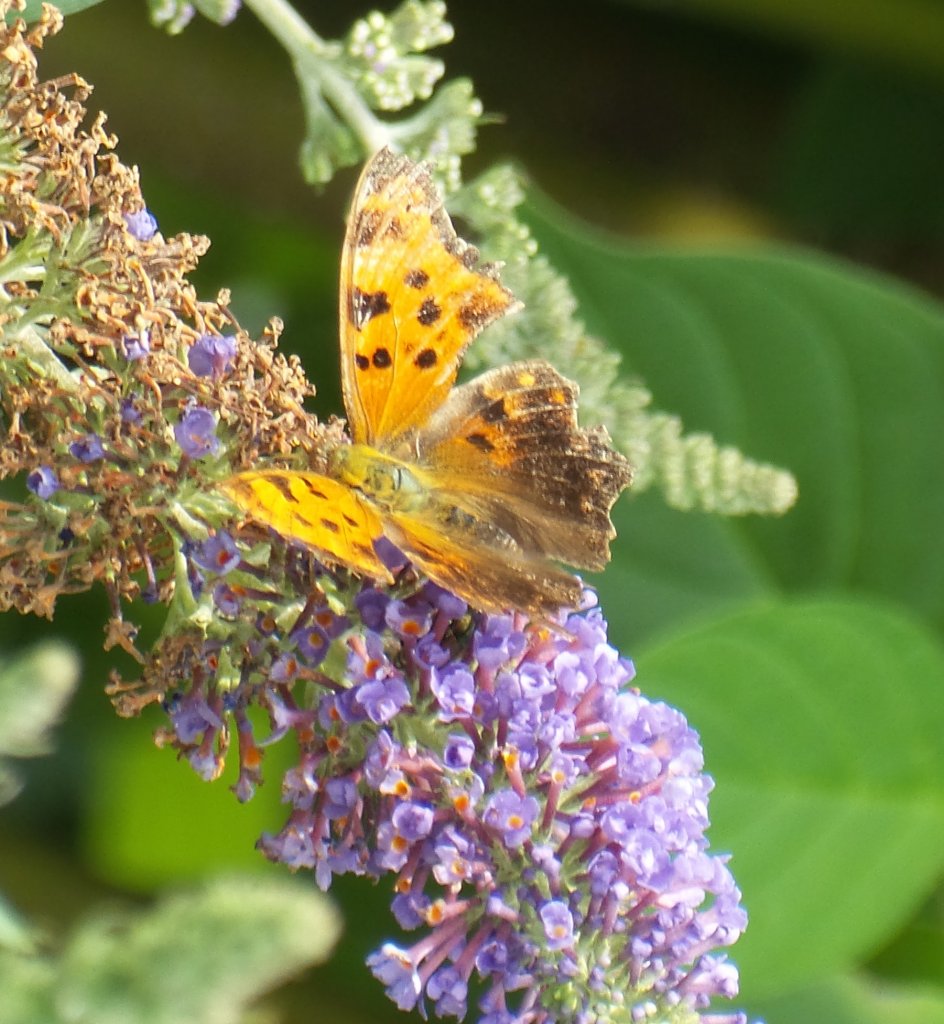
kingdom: Animalia
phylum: Arthropoda
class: Insecta
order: Lepidoptera
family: Nymphalidae
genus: Polygonia
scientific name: Polygonia comma
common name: Eastern Comma
